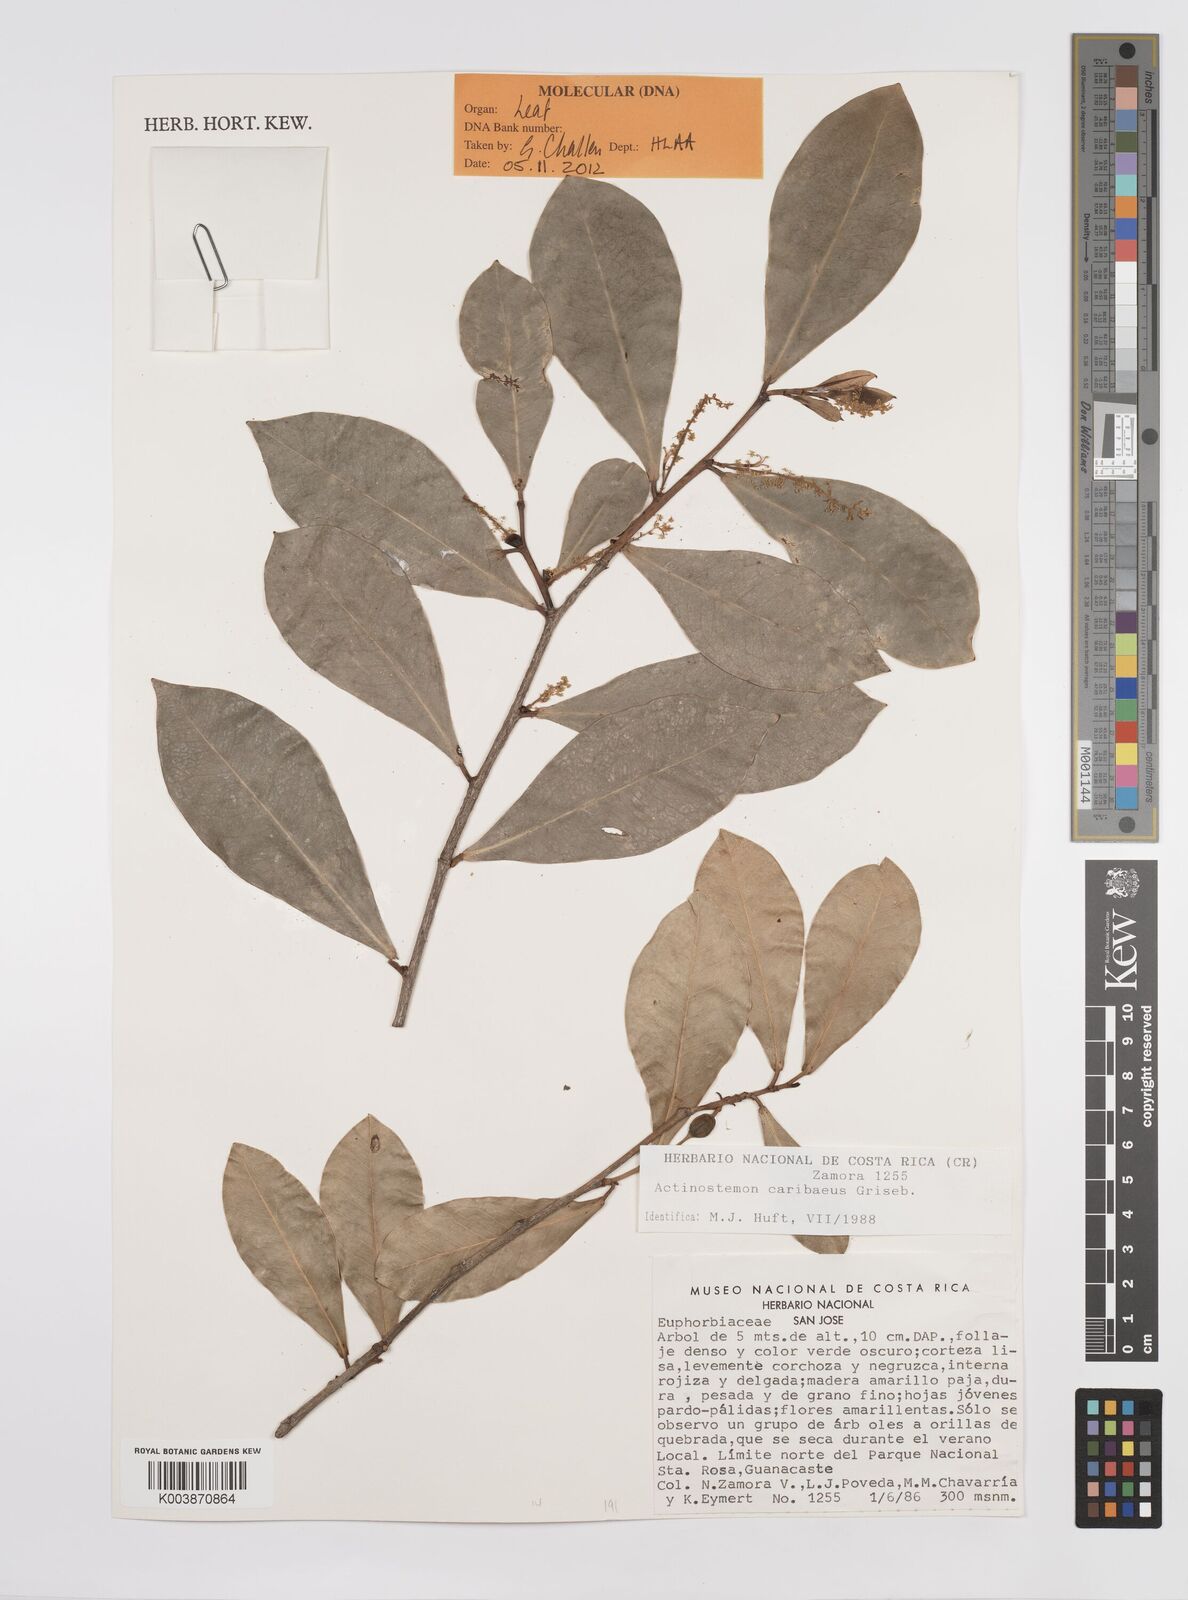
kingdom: Plantae
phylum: Tracheophyta
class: Magnoliopsida
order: Malpighiales
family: Euphorbiaceae
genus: Actinostemon
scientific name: Actinostemon caribaeus
